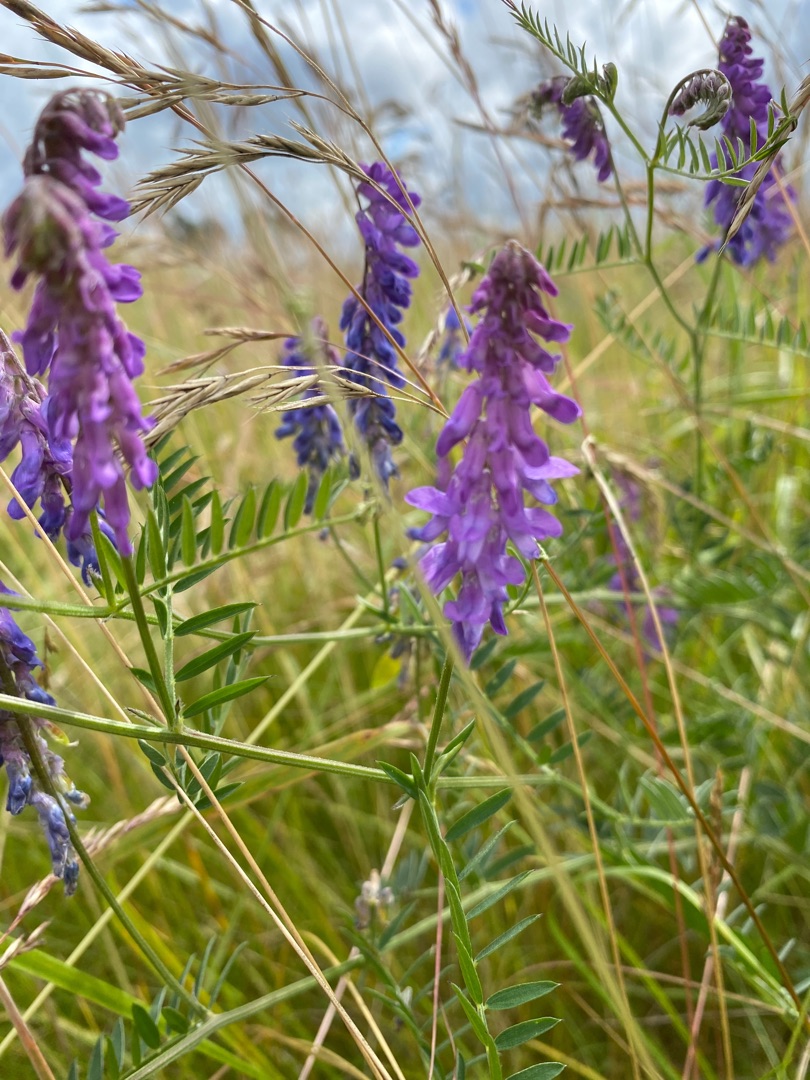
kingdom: Plantae
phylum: Tracheophyta
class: Magnoliopsida
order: Fabales
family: Fabaceae
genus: Vicia
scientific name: Vicia cracca
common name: Muse-vikke
